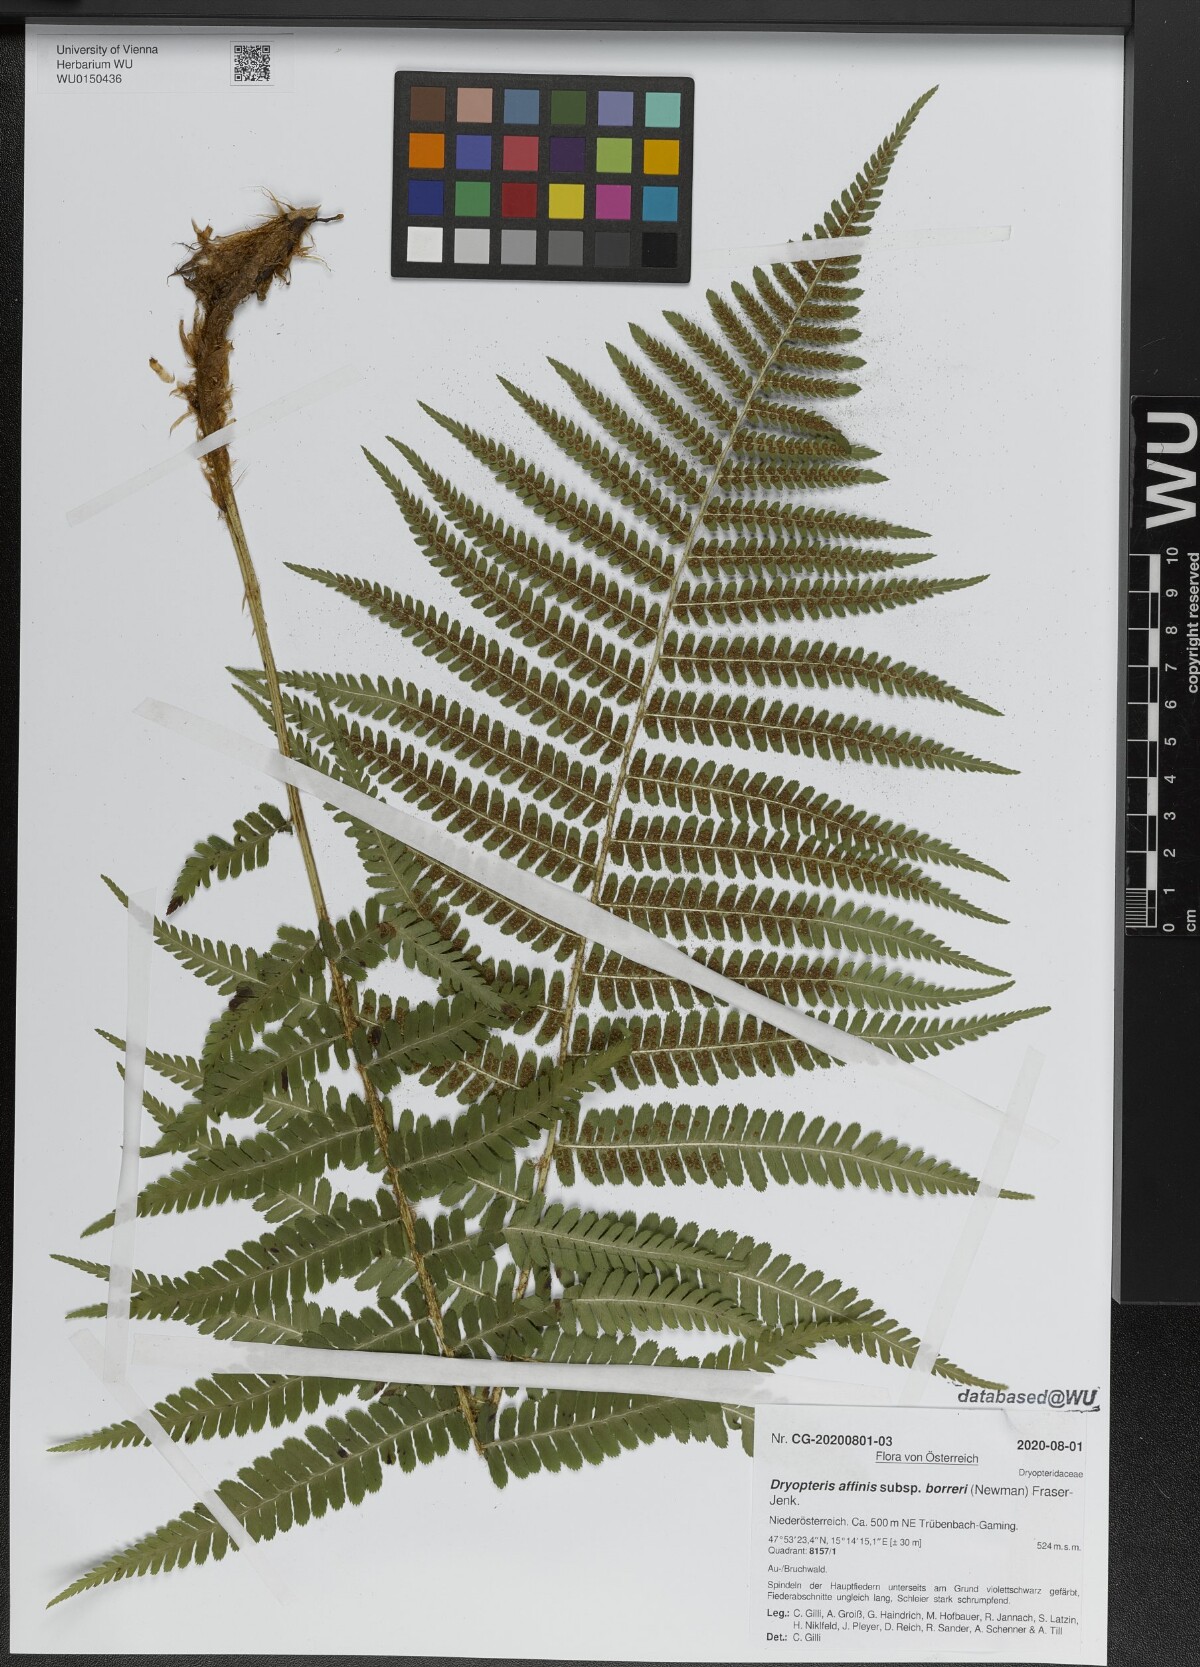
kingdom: Plantae
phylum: Tracheophyta
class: Polypodiopsida
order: Polypodiales
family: Dryopteridaceae
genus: Dryopteris
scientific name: Dryopteris borreri
